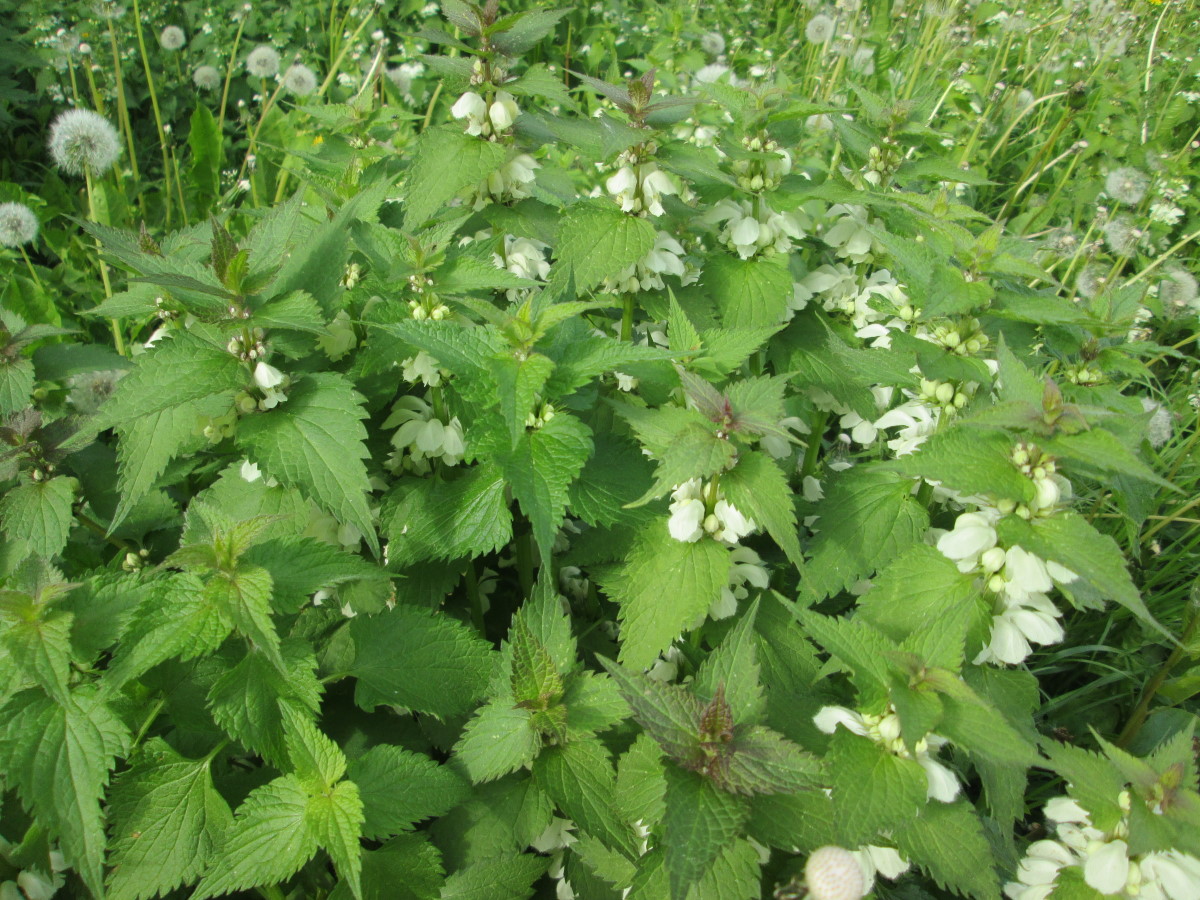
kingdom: Plantae
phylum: Tracheophyta
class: Magnoliopsida
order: Lamiales
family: Lamiaceae
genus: Lamium
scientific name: Lamium album
